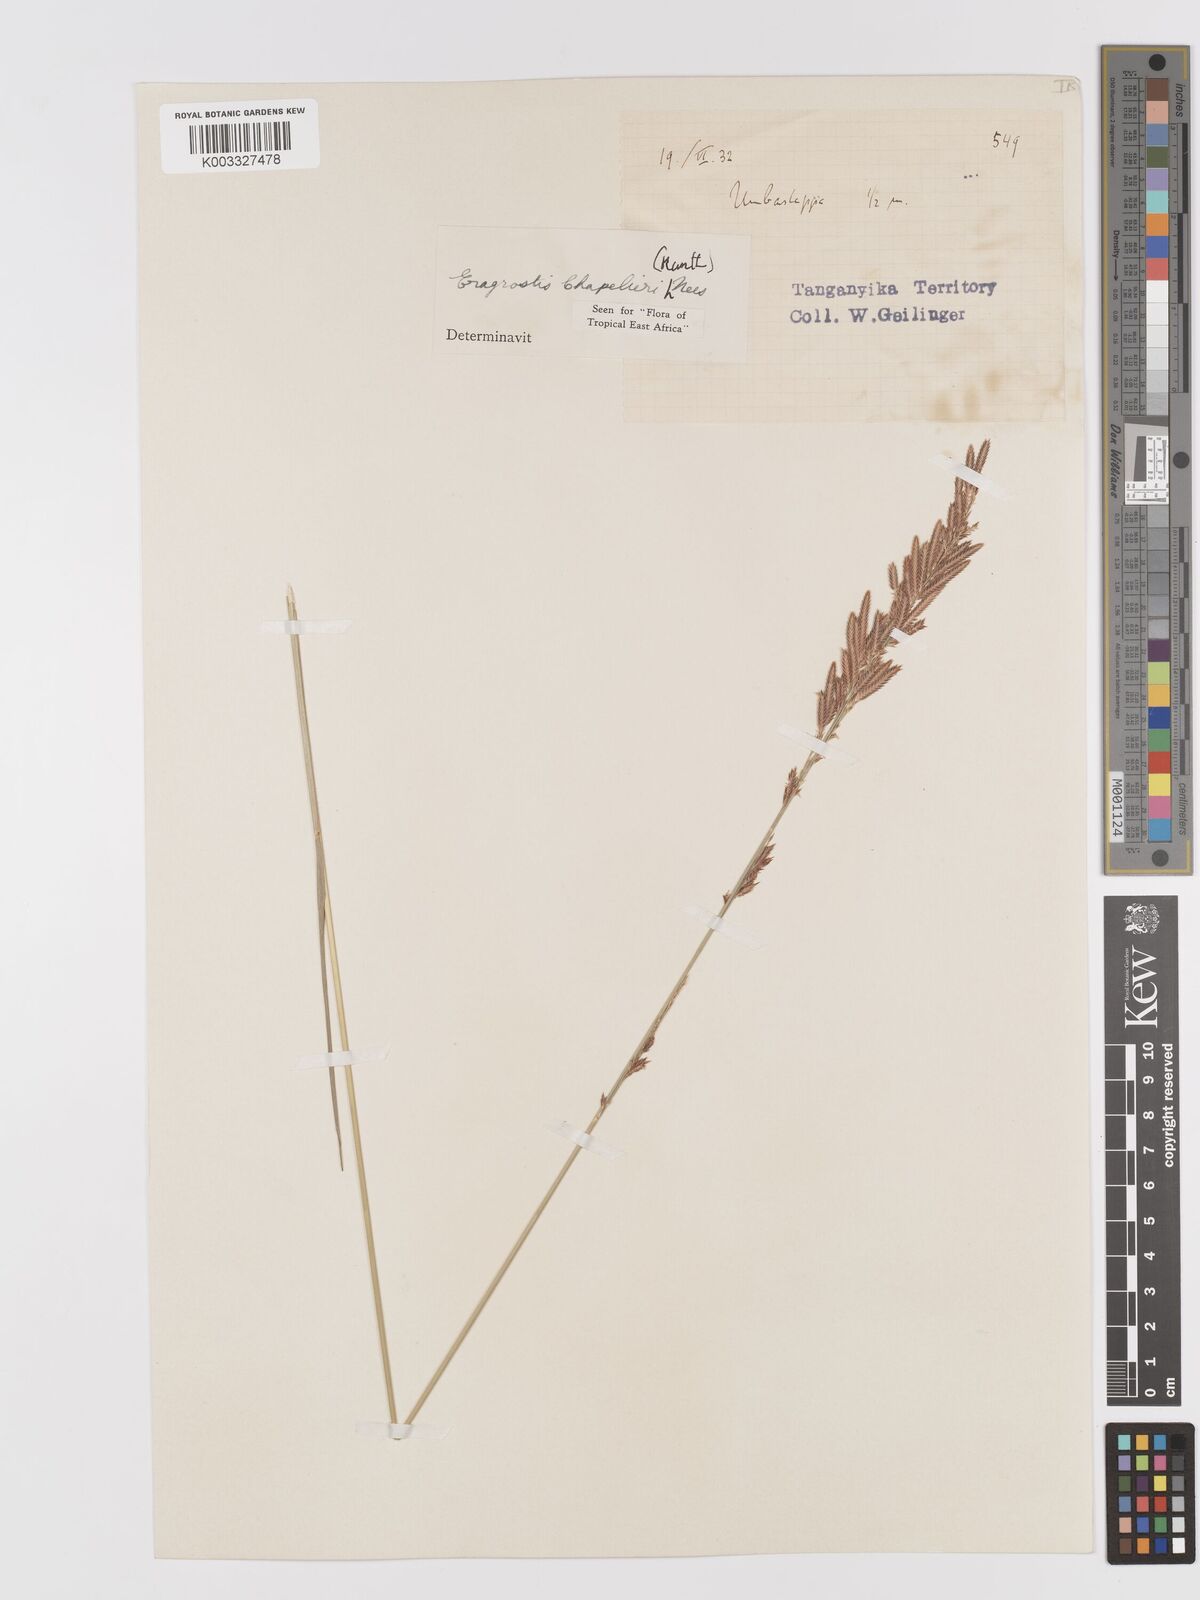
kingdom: Plantae
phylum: Tracheophyta
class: Liliopsida
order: Poales
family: Poaceae
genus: Eragrostis
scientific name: Eragrostis chapelieri
